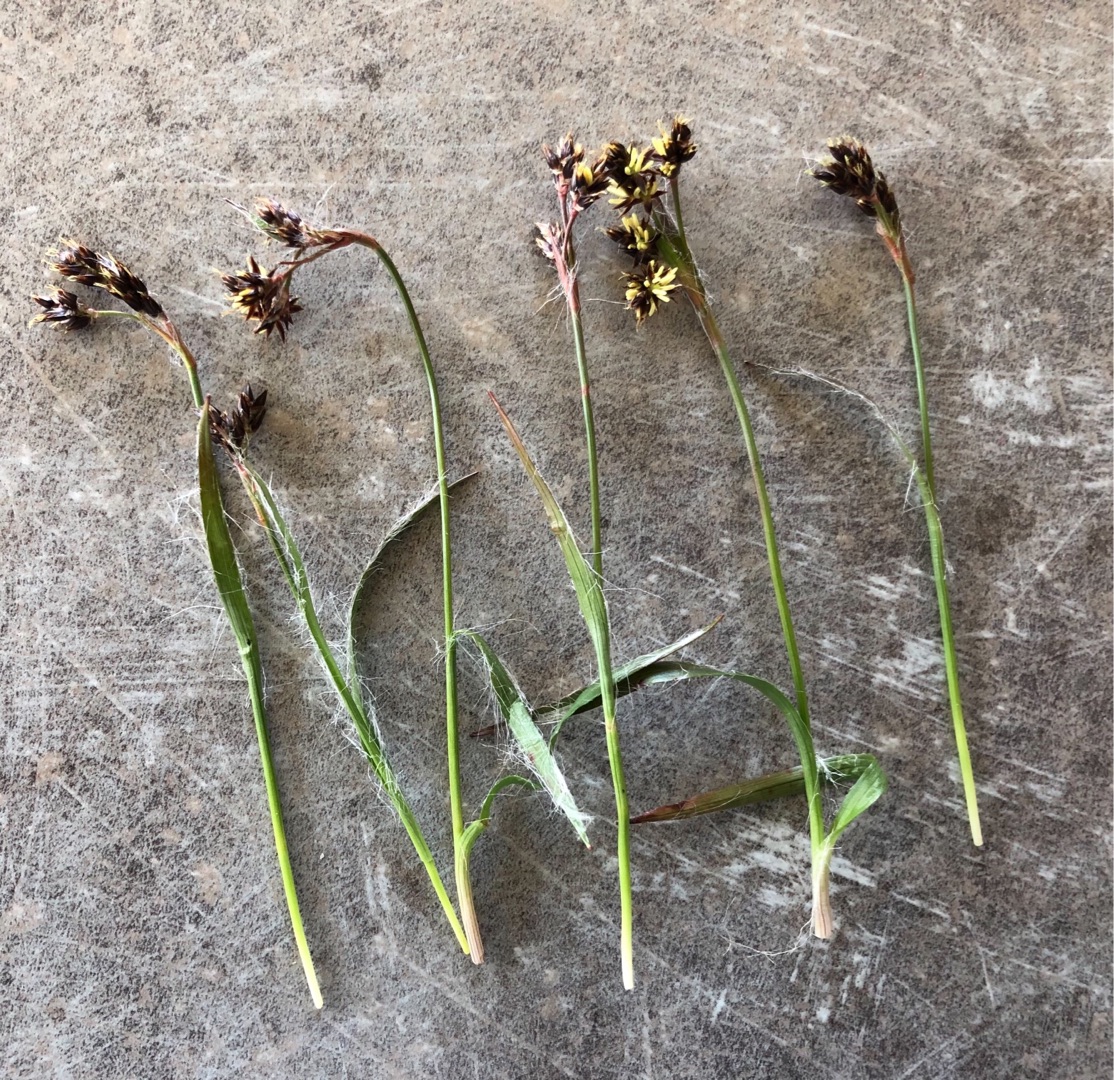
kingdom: Plantae
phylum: Tracheophyta
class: Liliopsida
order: Poales
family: Juncaceae
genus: Luzula
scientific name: Luzula campestris
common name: Mark-frytle
